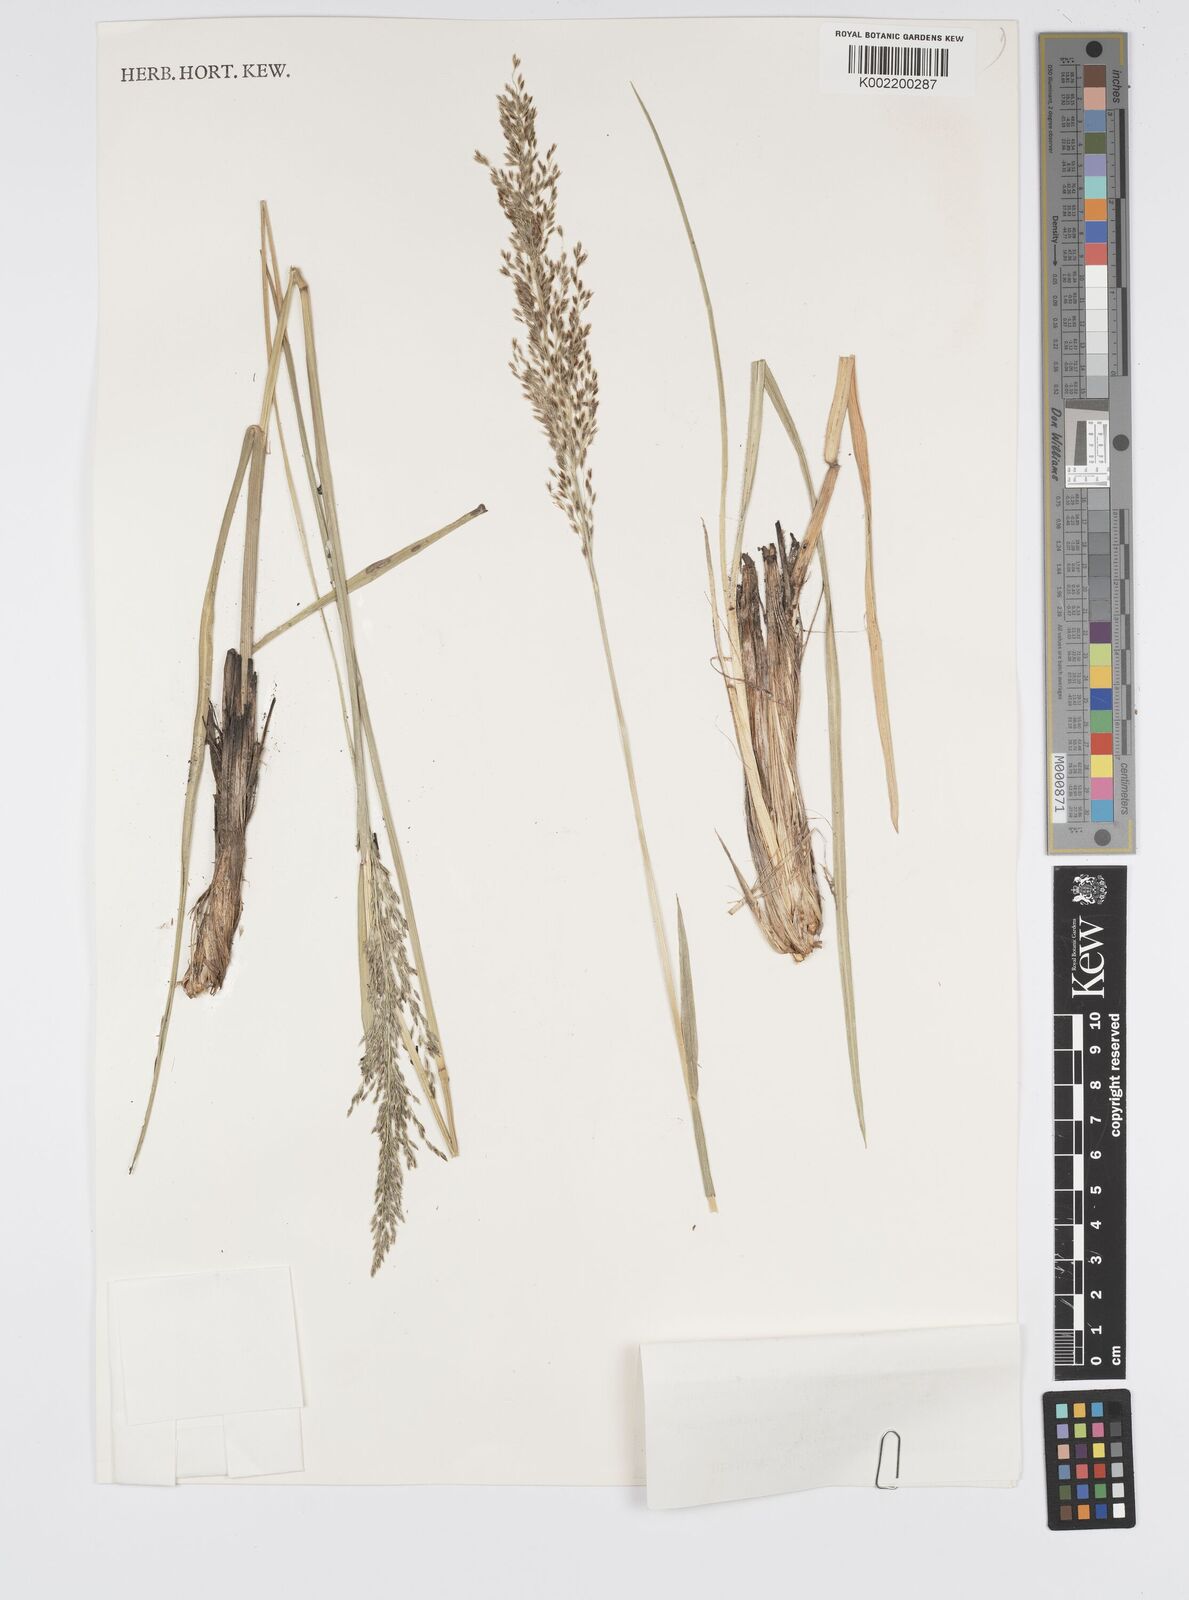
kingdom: Plantae
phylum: Tracheophyta
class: Liliopsida
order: Poales
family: Poaceae
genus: Anthenantia
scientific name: Anthenantia lanata
